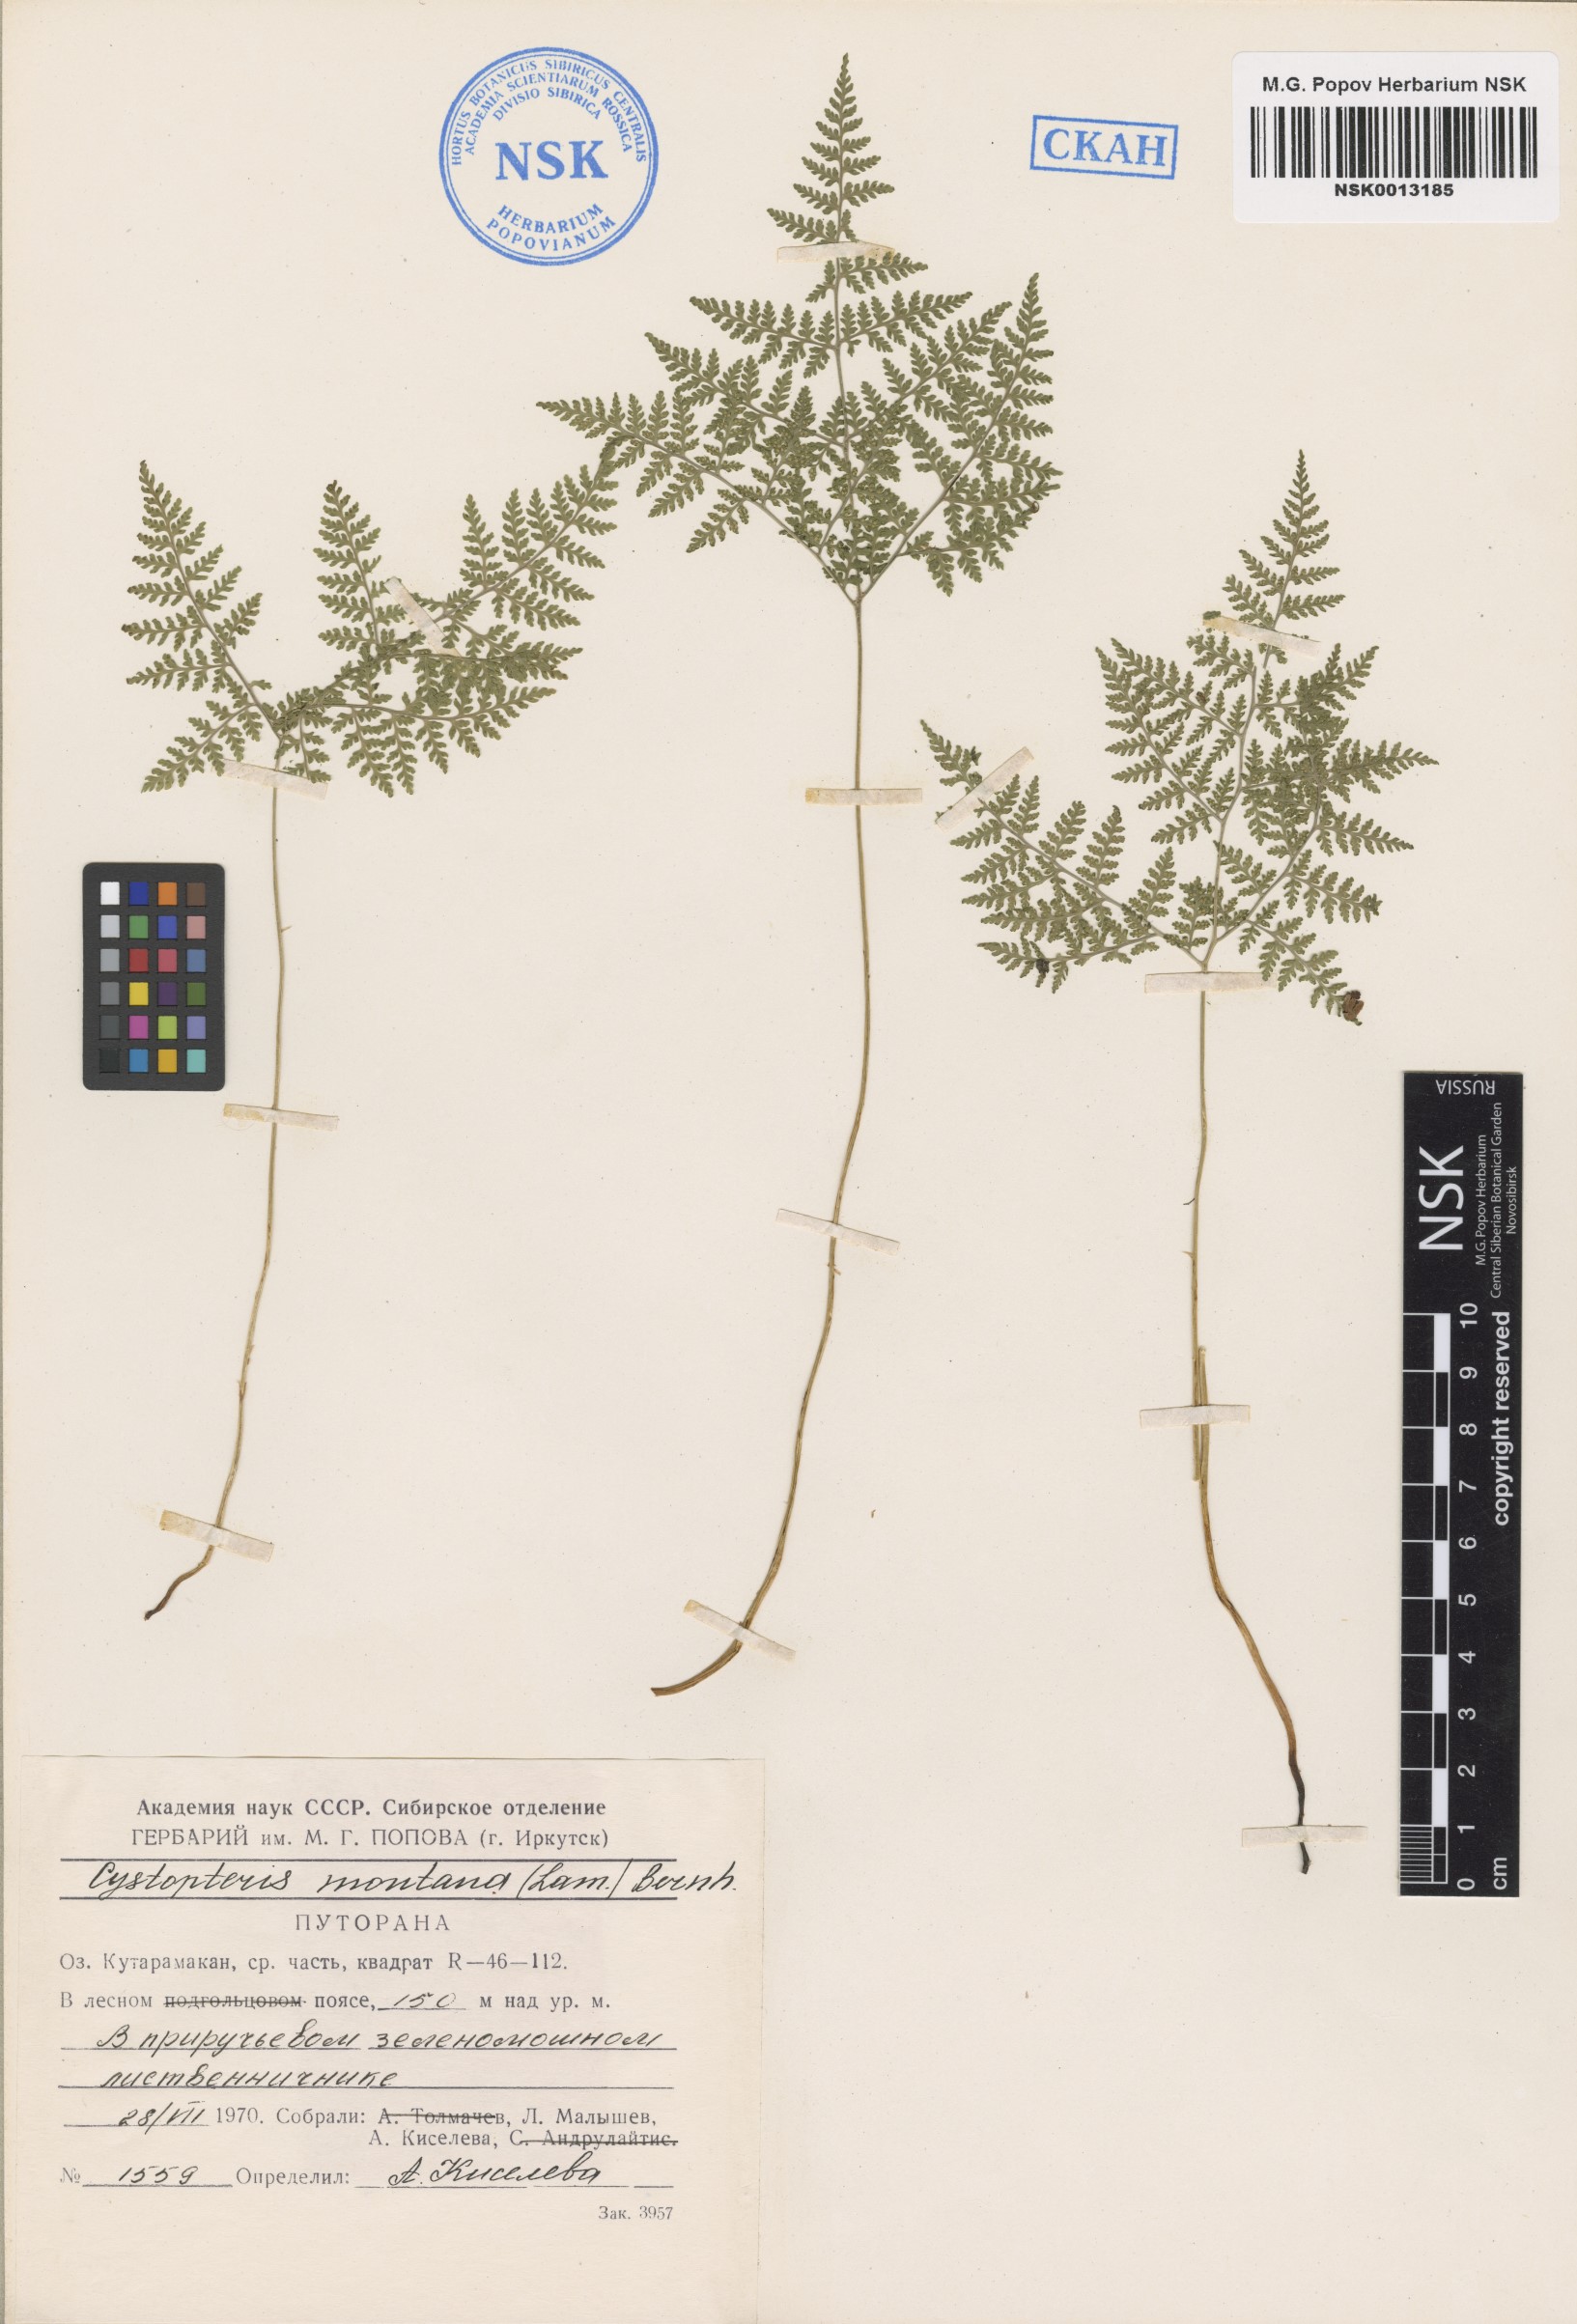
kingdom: Plantae
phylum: Tracheophyta
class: Polypodiopsida
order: Polypodiales
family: Cystopteridaceae
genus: Cystopteris
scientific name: Cystopteris montana
